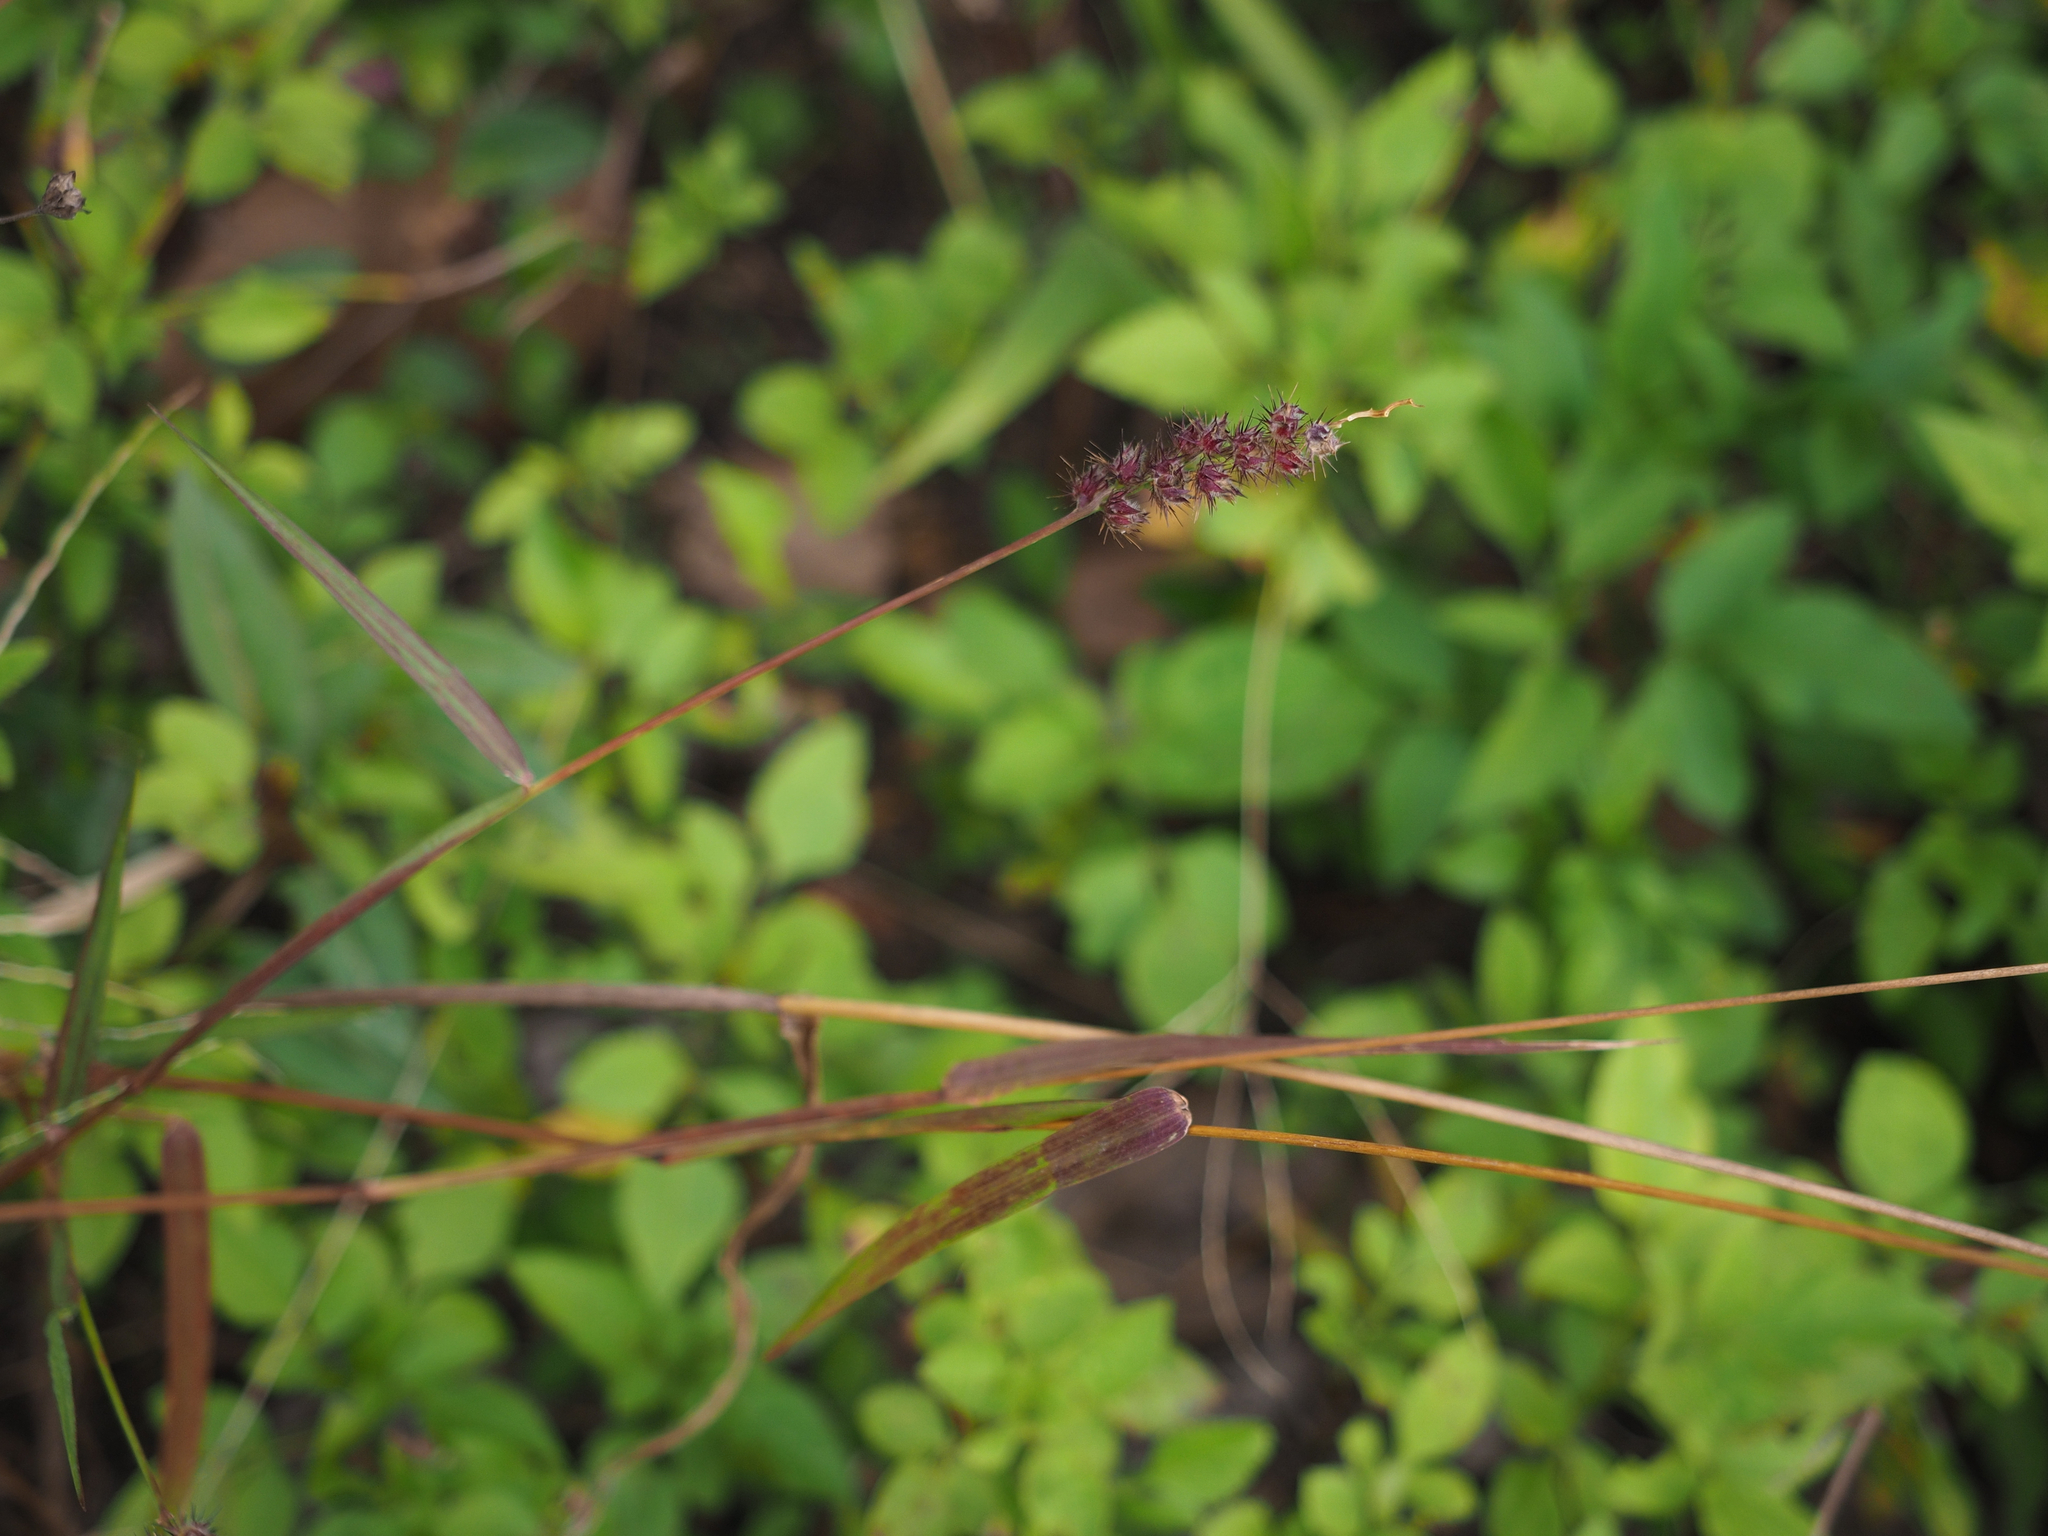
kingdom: Plantae
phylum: Tracheophyta
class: Liliopsida
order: Poales
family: Poaceae
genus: Cenchrus
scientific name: Cenchrus echinatus
